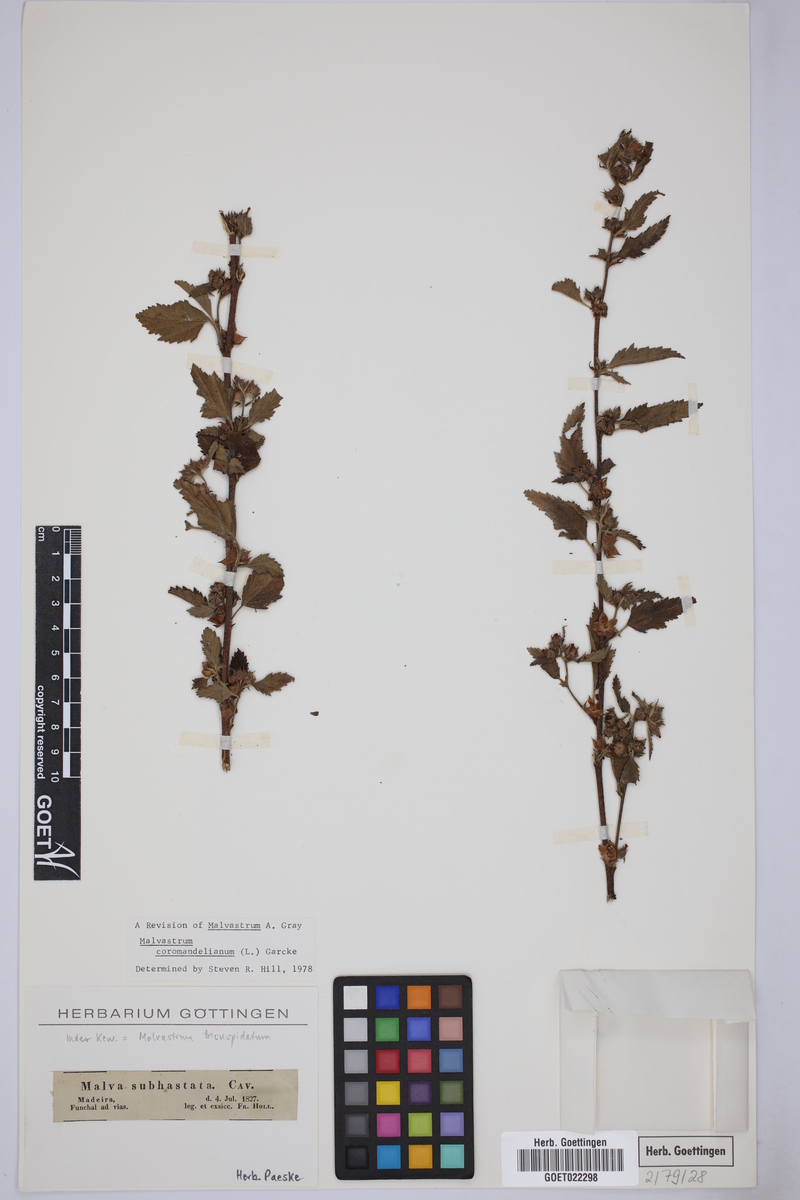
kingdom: Plantae
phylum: Tracheophyta
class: Magnoliopsida
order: Malvales
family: Malvaceae
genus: Malvastrum
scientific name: Malvastrum coromandelianum
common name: Threelobe false mallow
